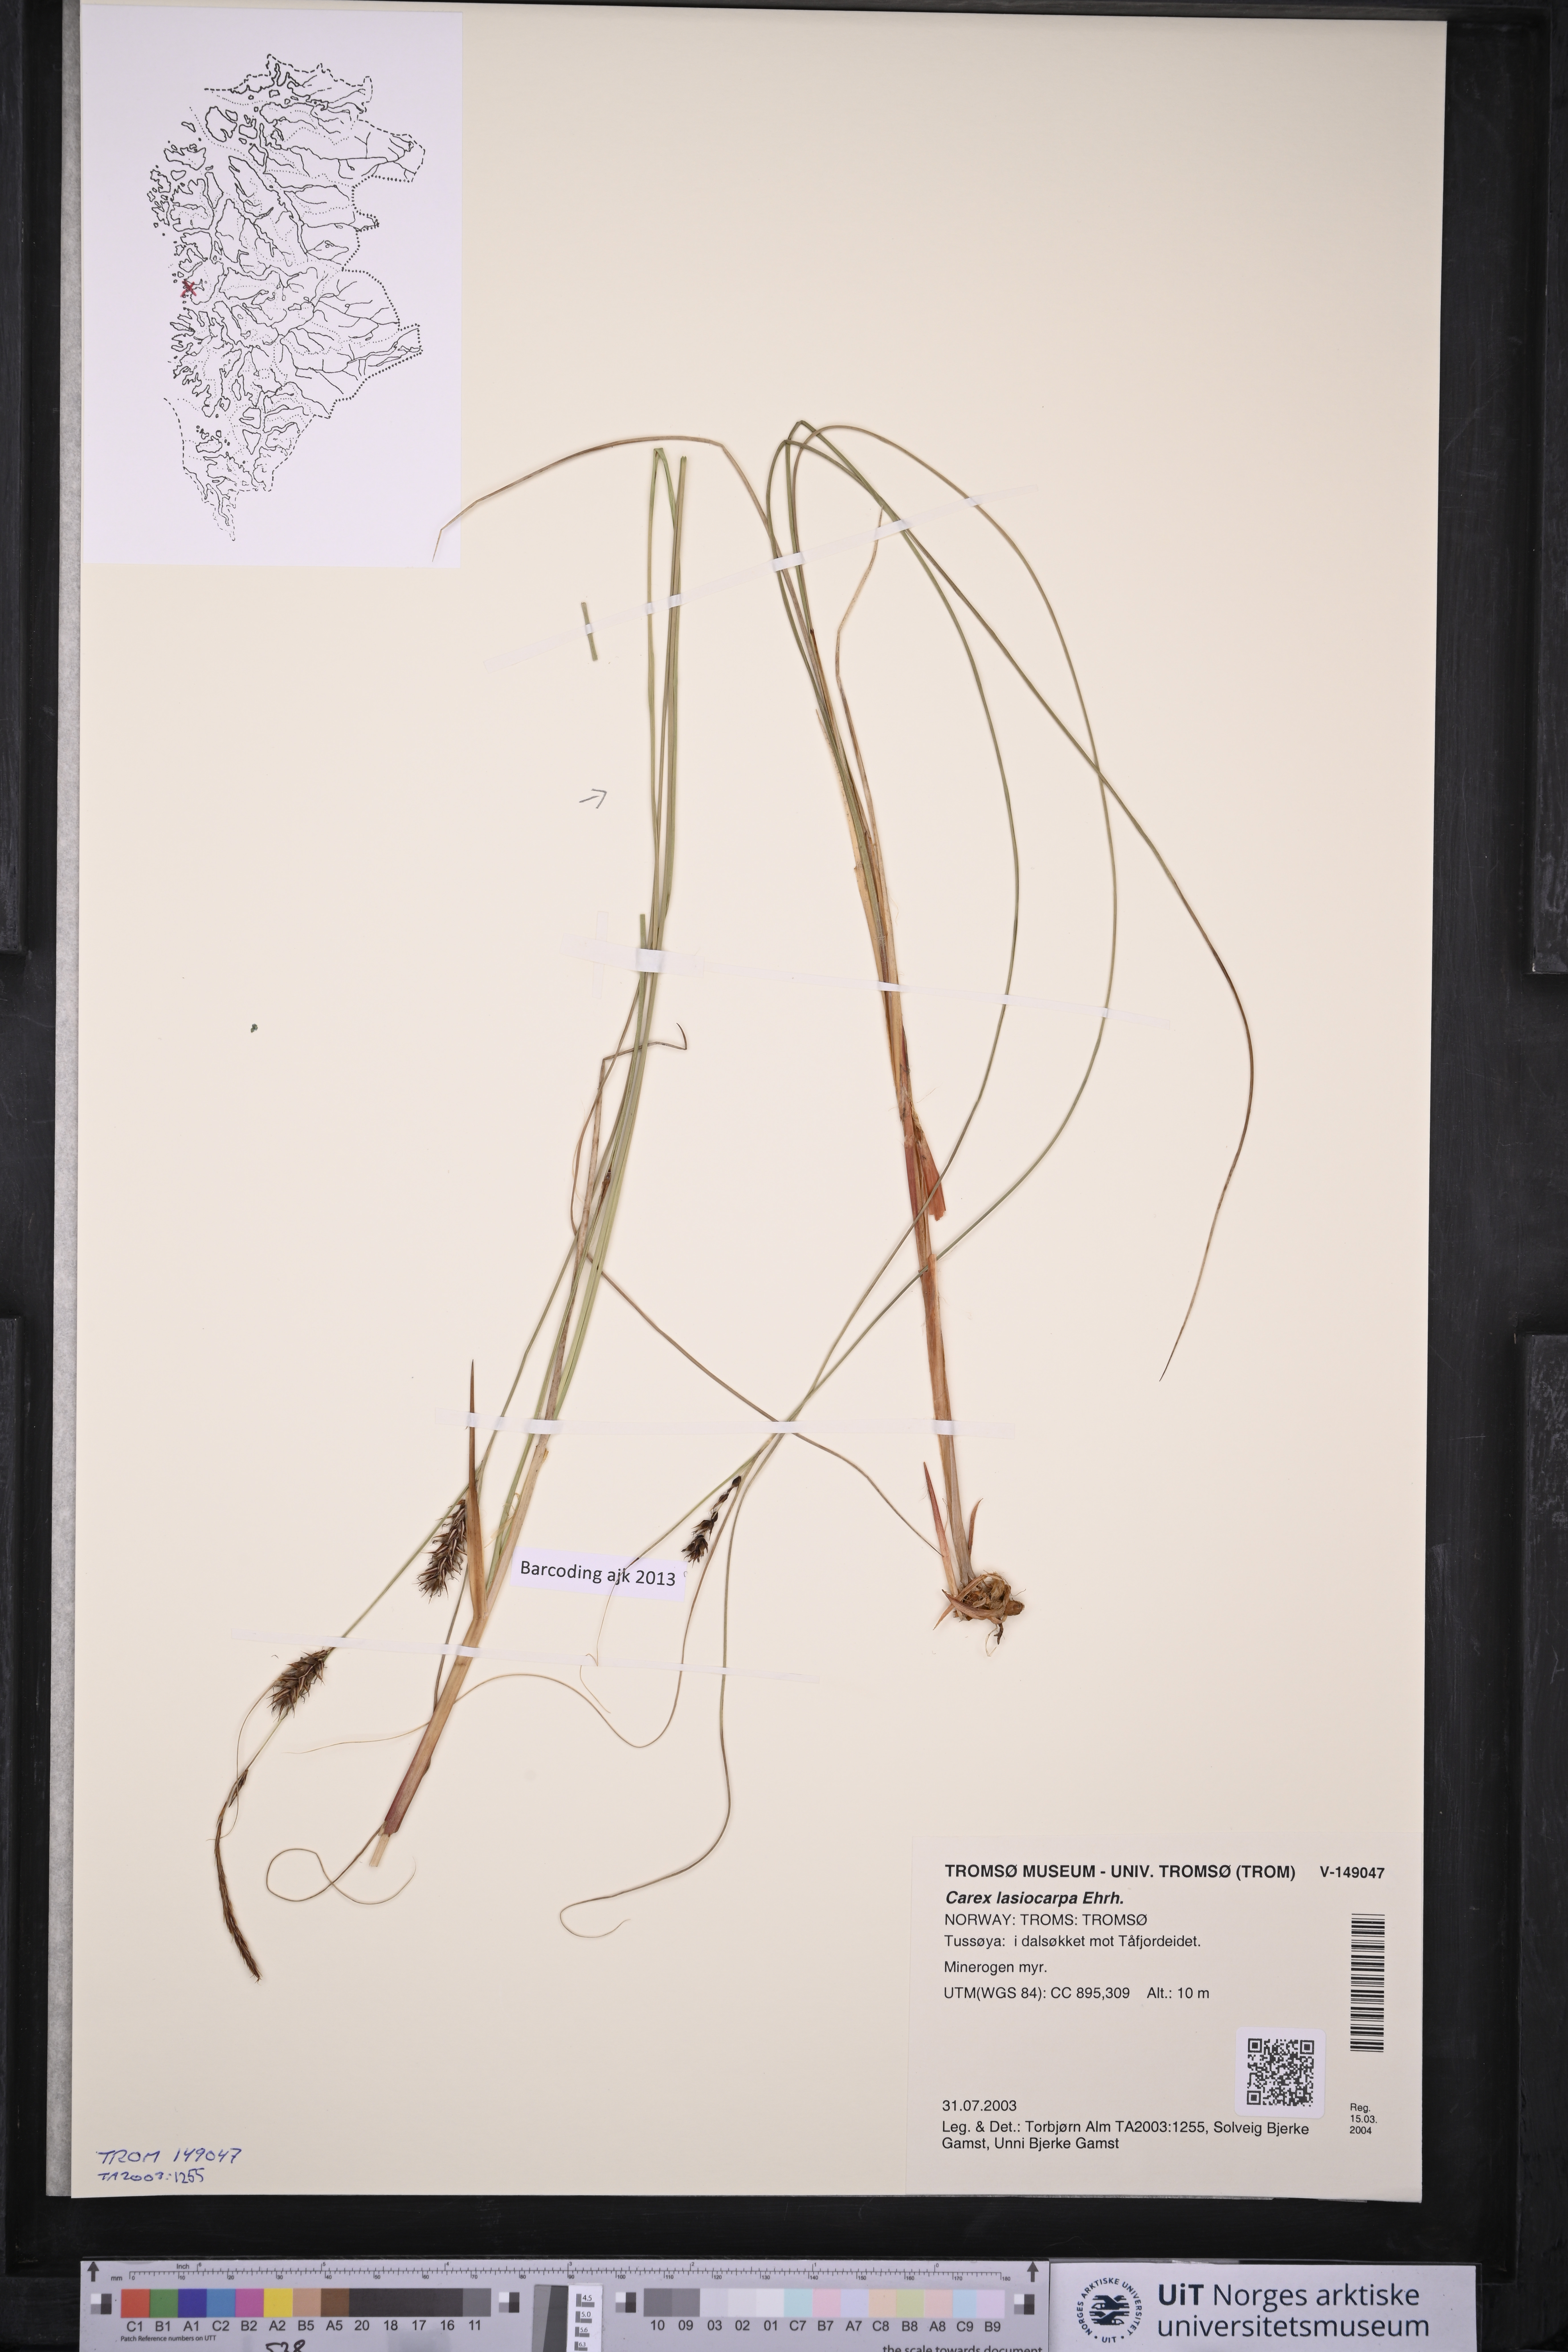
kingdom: Plantae
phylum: Tracheophyta
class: Liliopsida
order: Poales
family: Cyperaceae
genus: Carex
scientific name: Carex lasiocarpa
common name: Slender sedge
